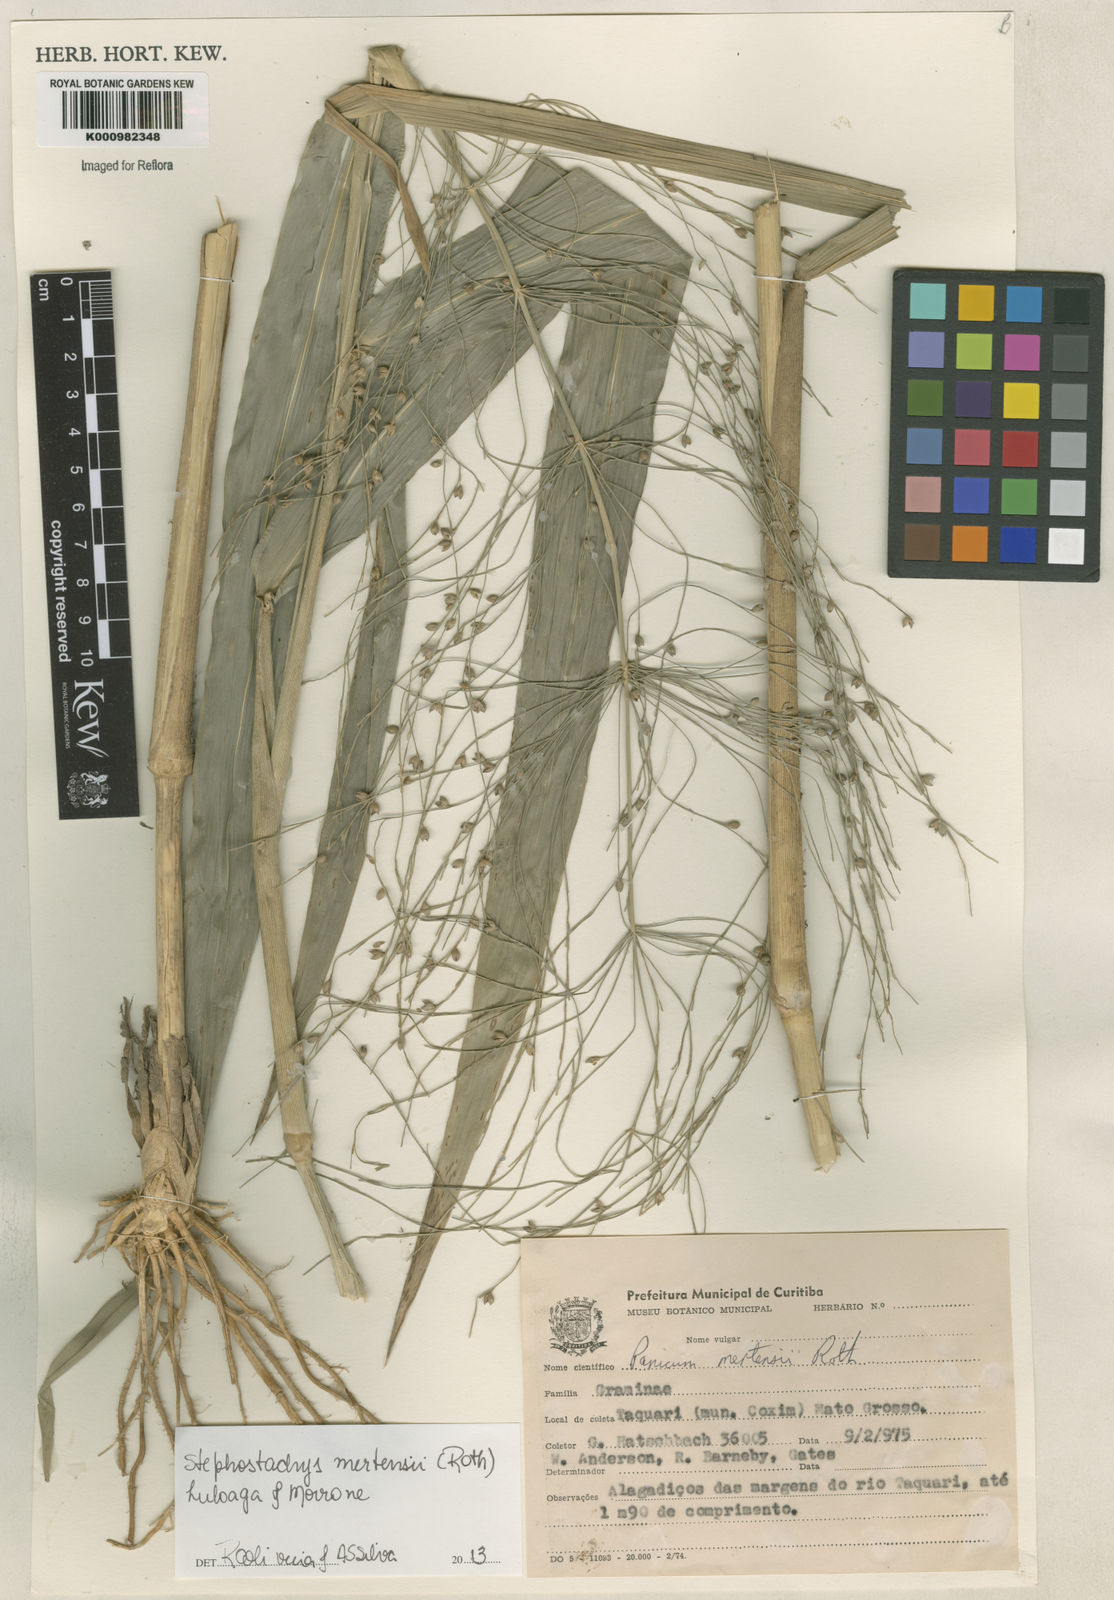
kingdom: Plantae
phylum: Tracheophyta
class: Liliopsida
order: Poales
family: Poaceae
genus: Stephostachys
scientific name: Stephostachys mertensii
